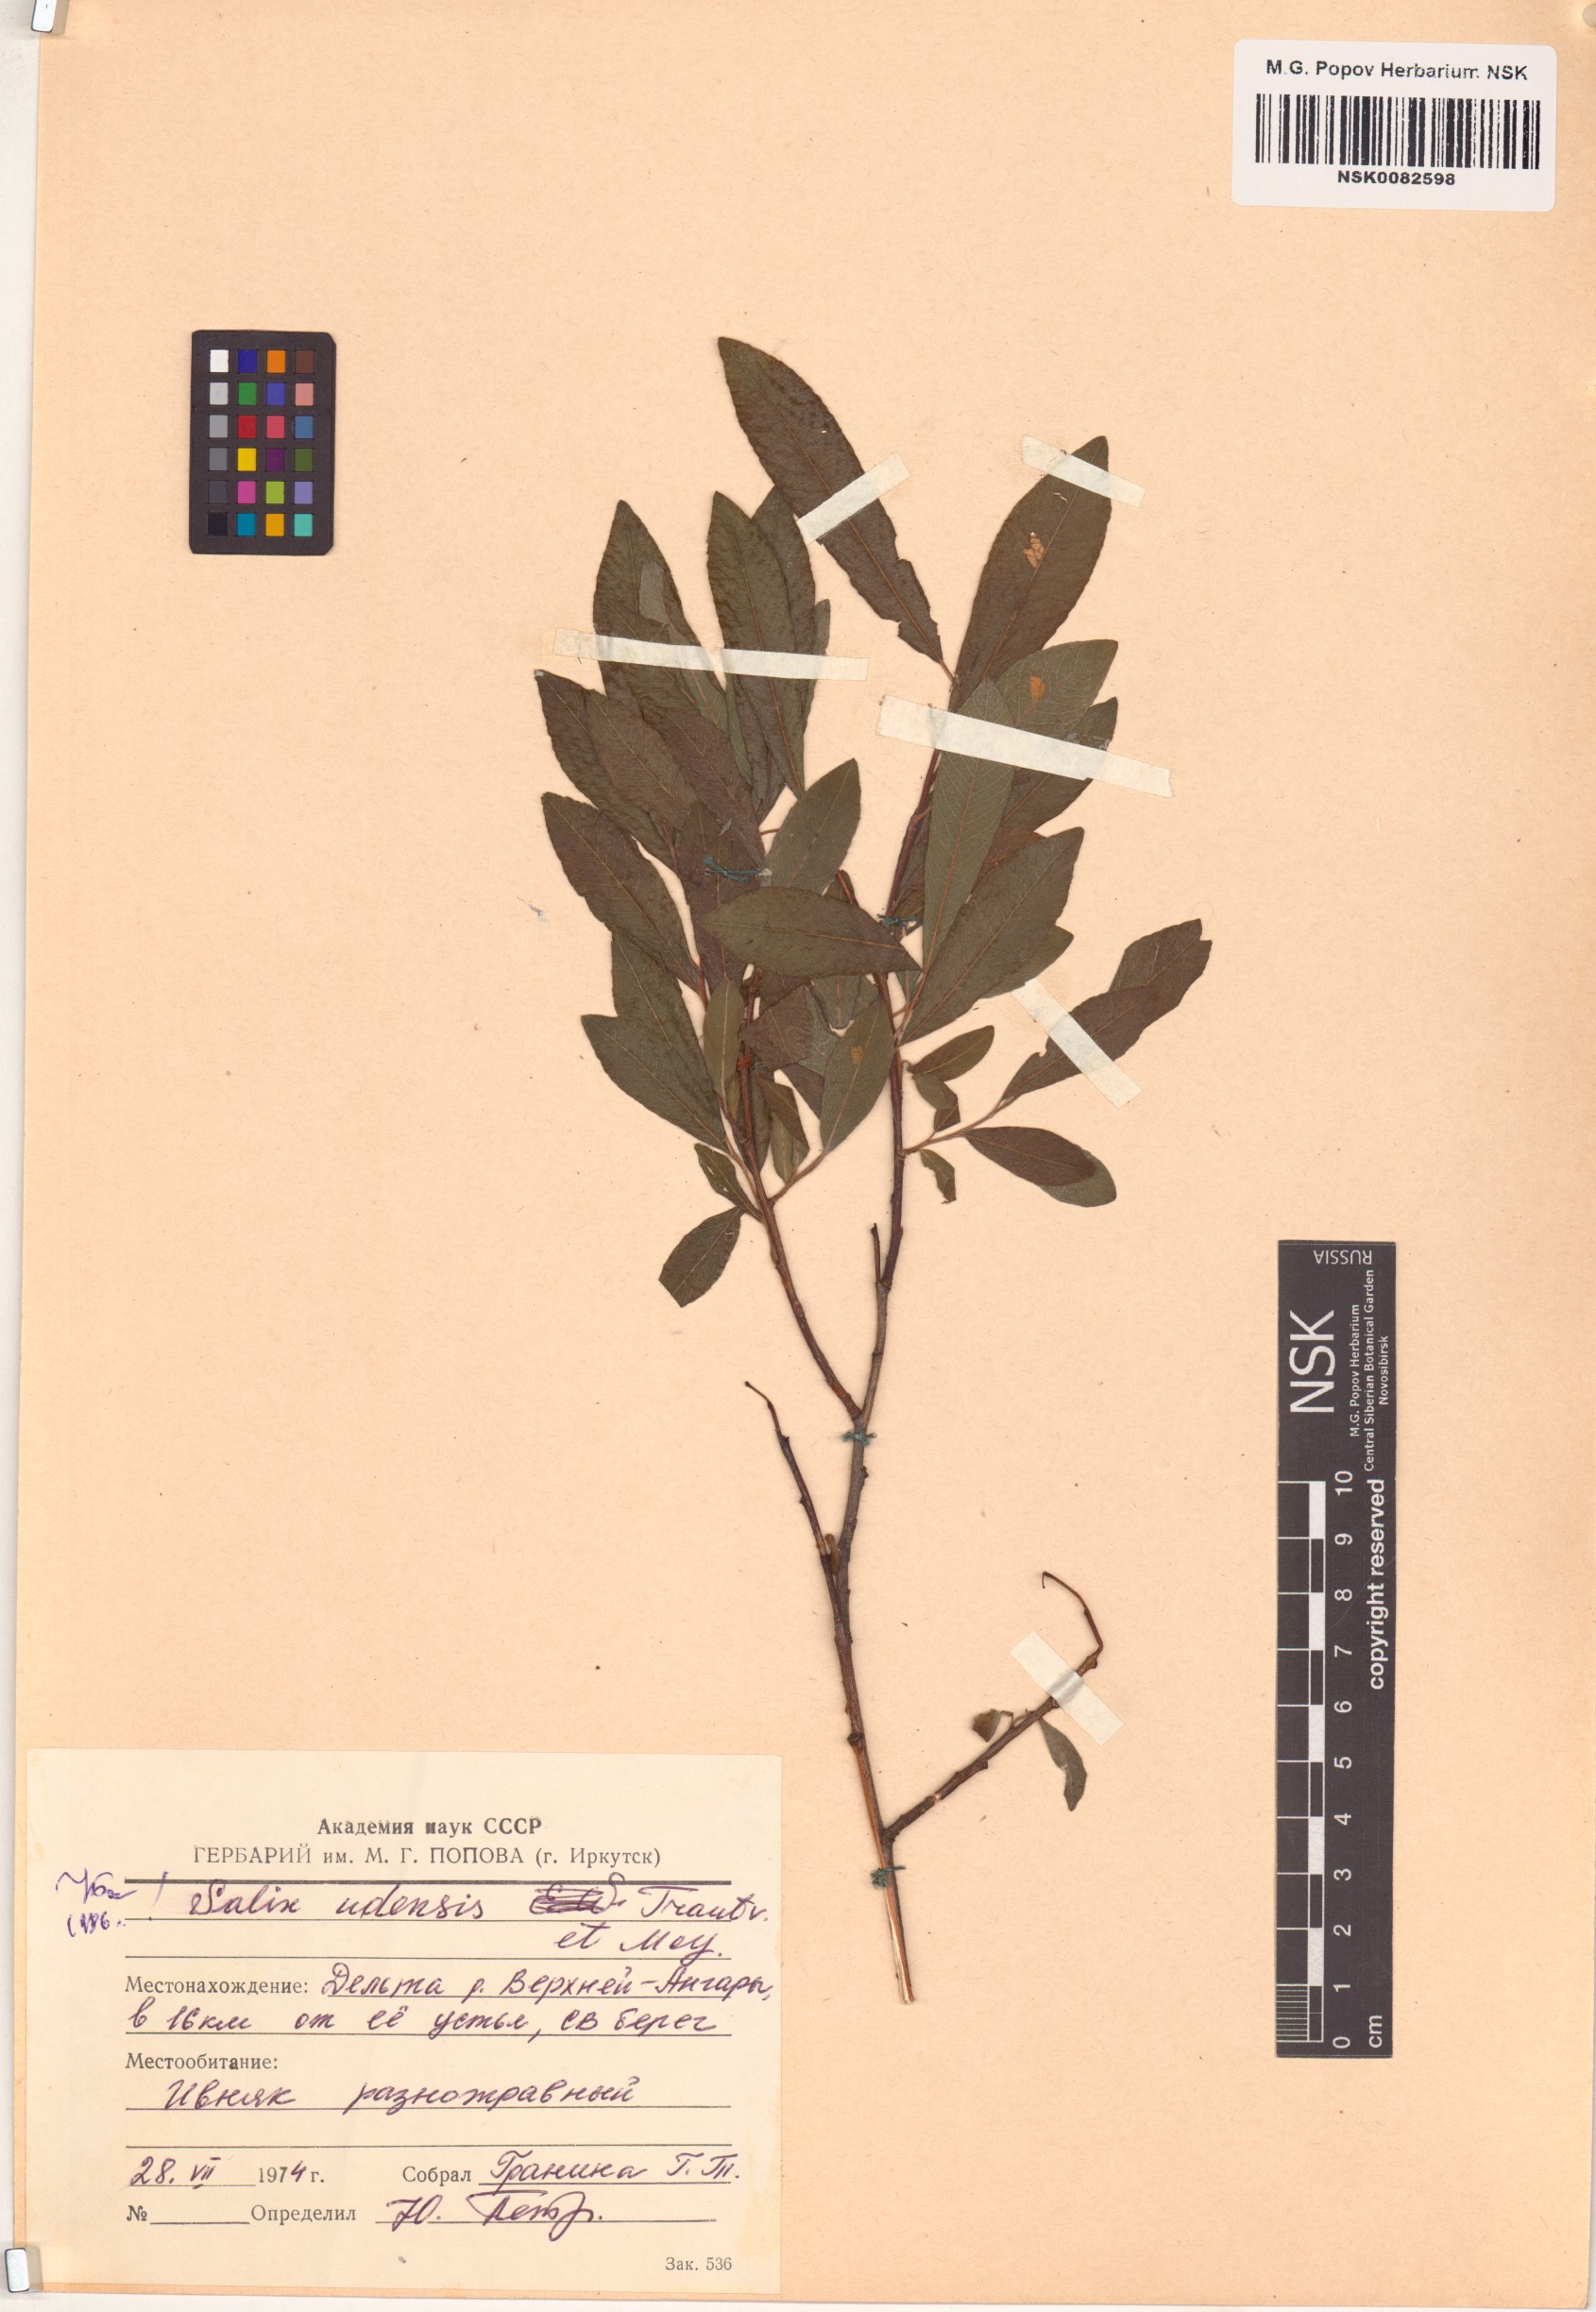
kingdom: Plantae
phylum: Tracheophyta
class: Magnoliopsida
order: Malpighiales
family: Salicaceae
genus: Salix
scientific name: Salix udensis
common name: Sachalin willow
